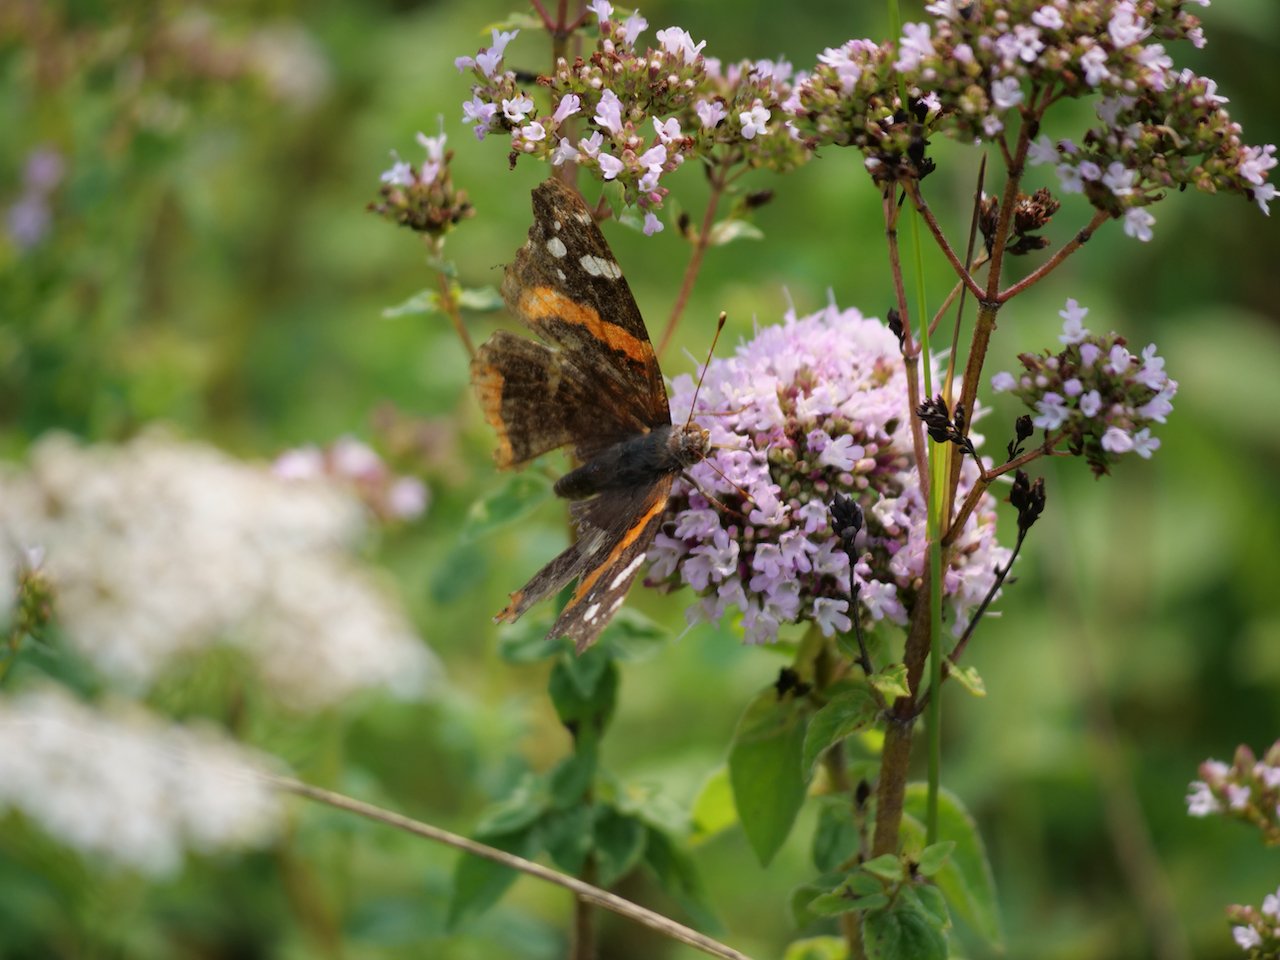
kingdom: Animalia
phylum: Arthropoda
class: Insecta
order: Lepidoptera
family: Nymphalidae
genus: Vanessa
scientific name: Vanessa atalanta
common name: Red Admiral
